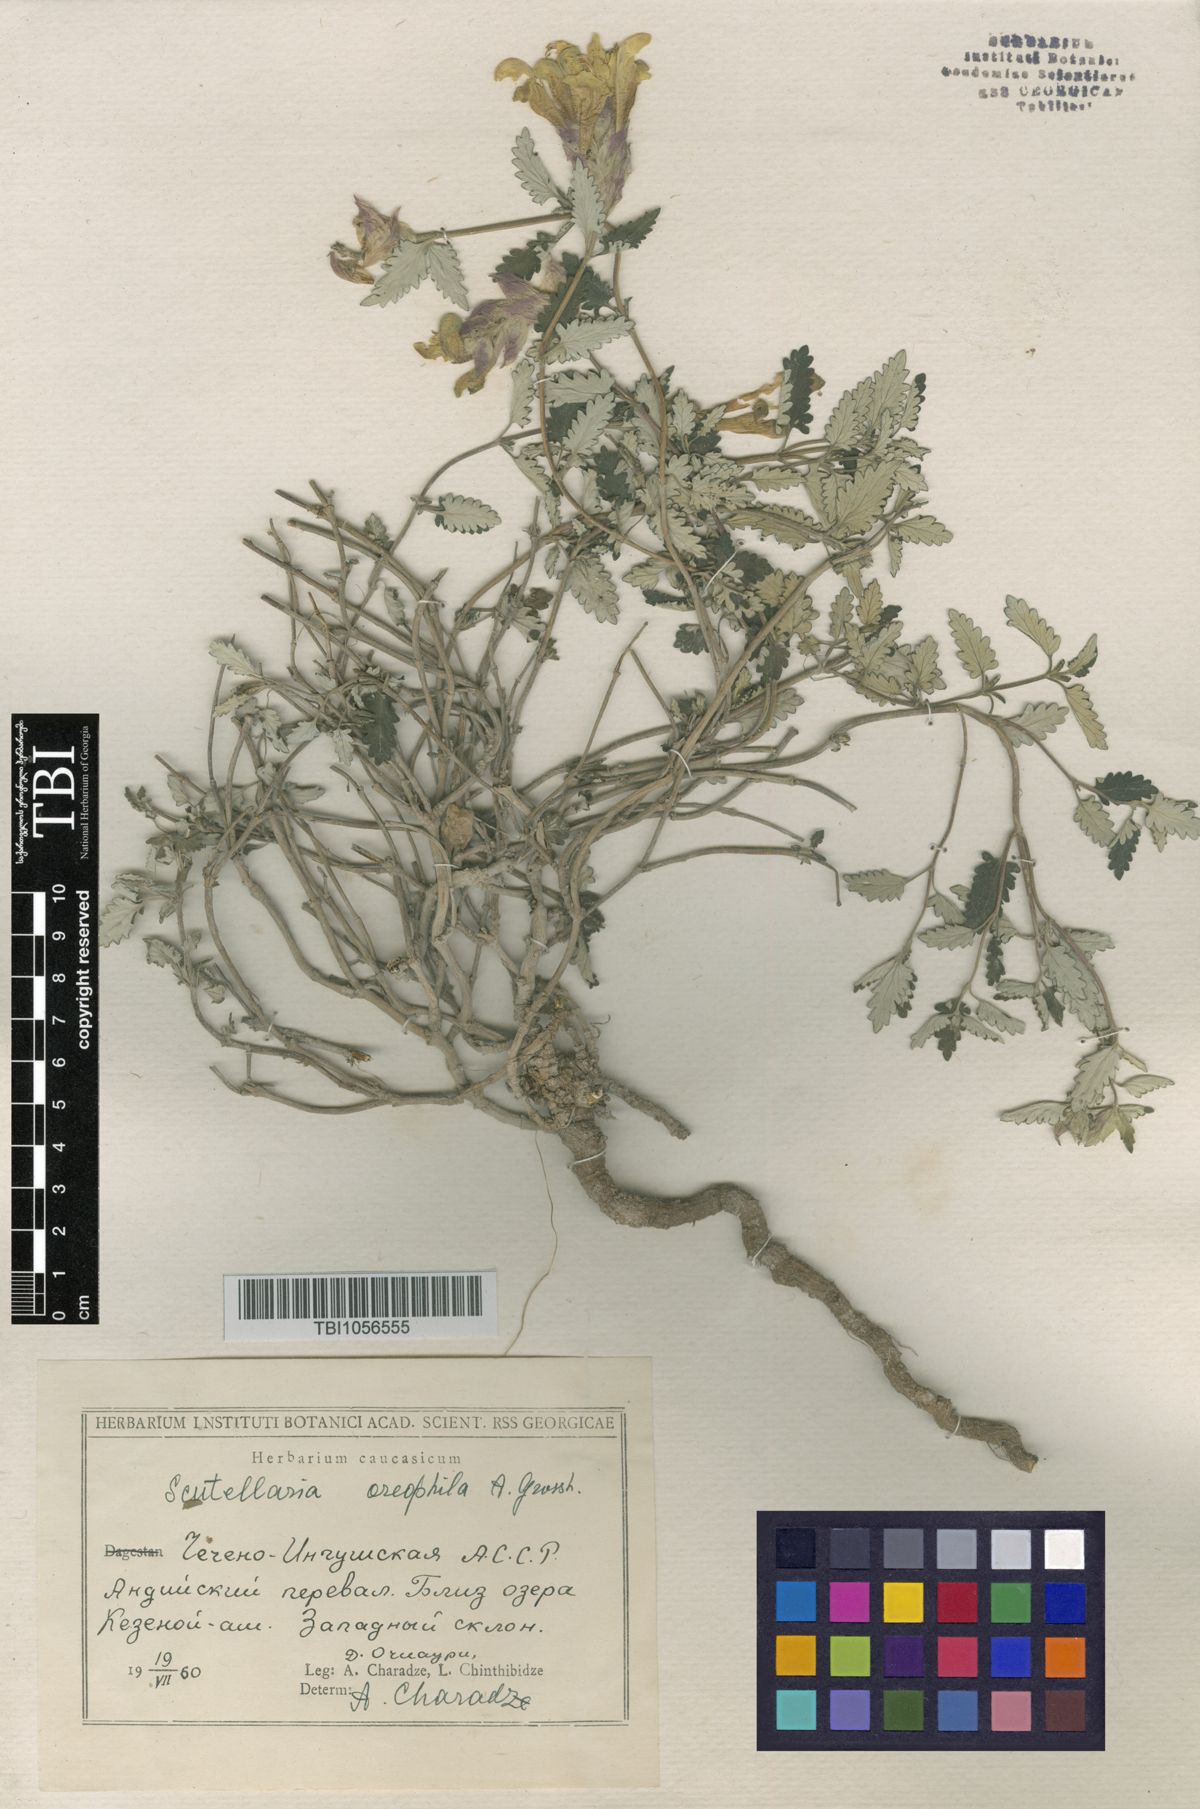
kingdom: Plantae
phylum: Tracheophyta
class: Magnoliopsida
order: Lamiales
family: Lamiaceae
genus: Scutellaria
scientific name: Scutellaria oreophila
